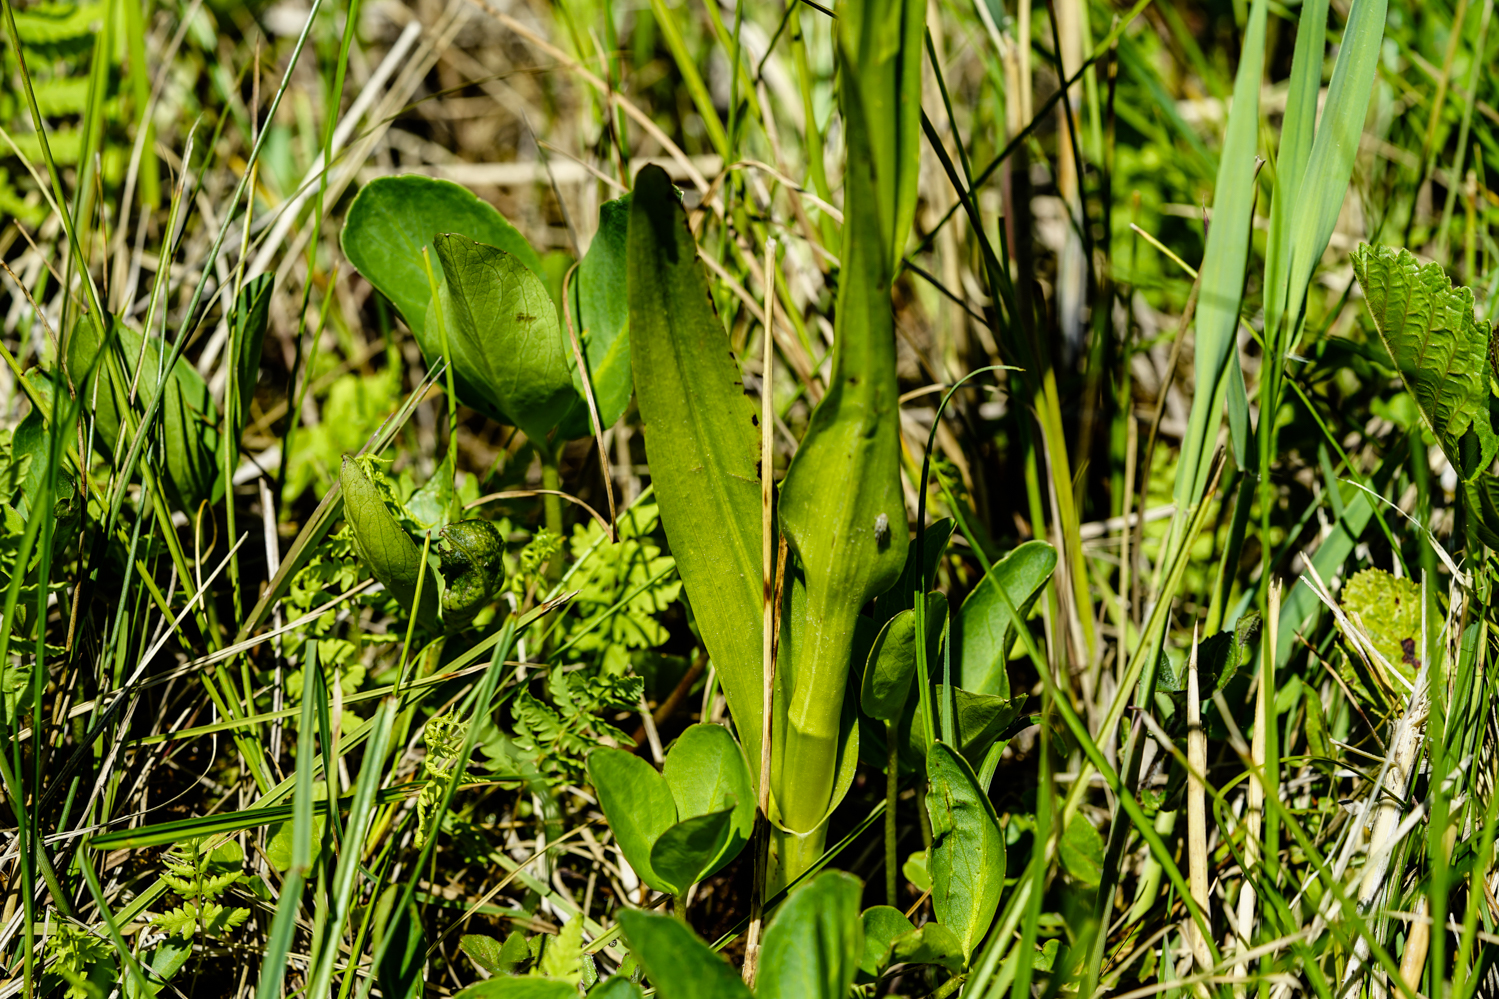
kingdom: Plantae
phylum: Tracheophyta
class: Liliopsida
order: Asparagales
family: Orchidaceae
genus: Dactylorhiza
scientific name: Dactylorhiza incarnata
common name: Early marsh-orchid
